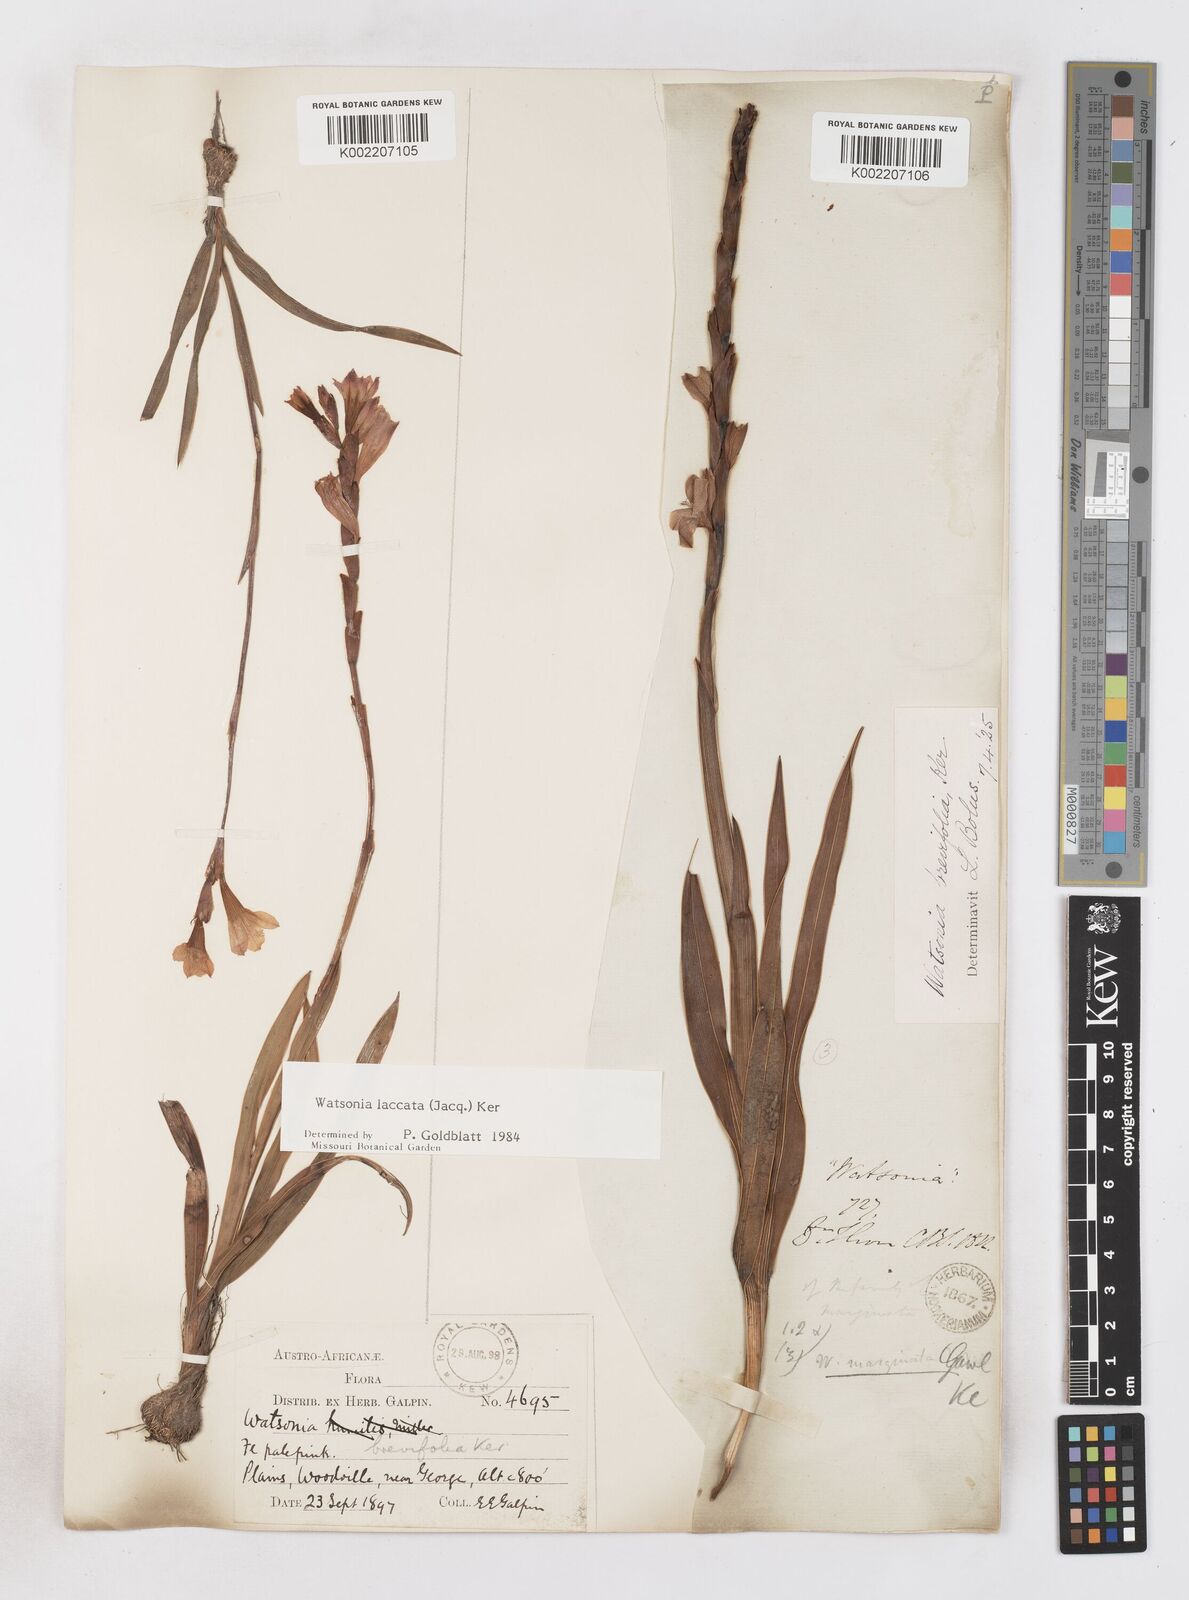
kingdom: Plantae
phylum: Tracheophyta
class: Liliopsida
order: Asparagales
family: Iridaceae
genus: Watsonia
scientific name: Watsonia laccata
